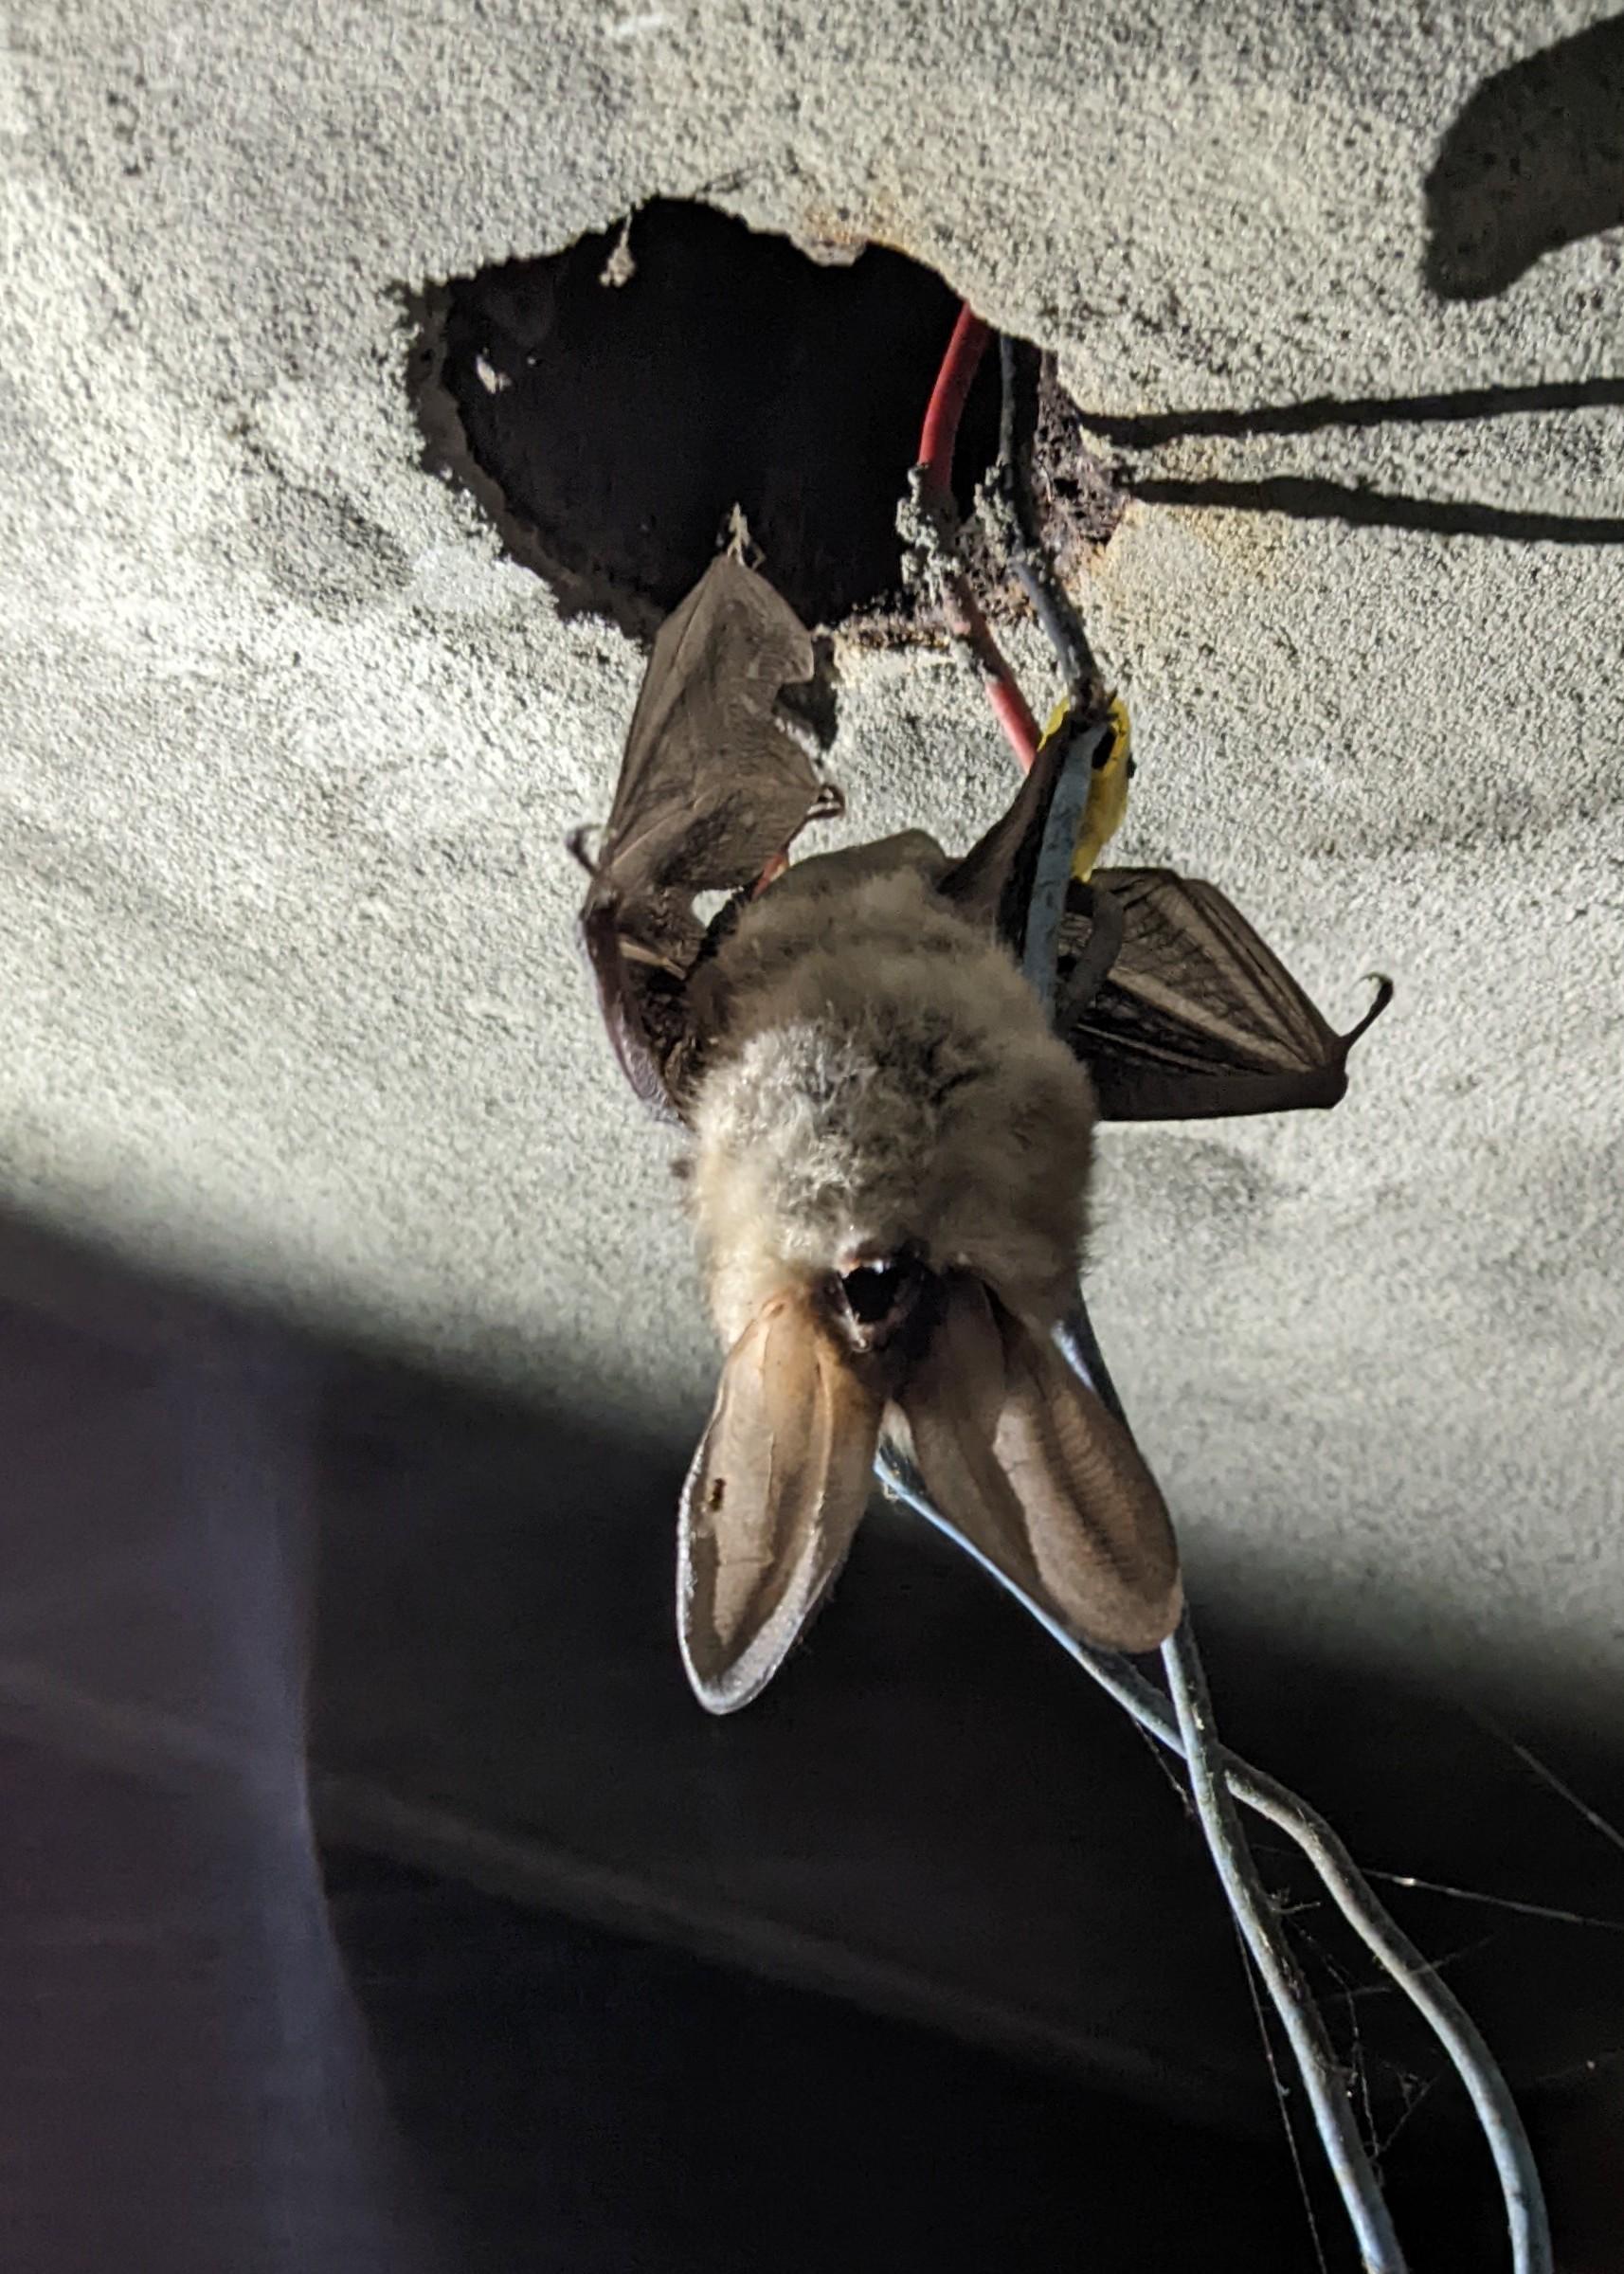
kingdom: Animalia
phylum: Chordata
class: Mammalia
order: Chiroptera
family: Vespertilionidae
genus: Plecotus
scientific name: Plecotus auritus
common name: Brun langøre
